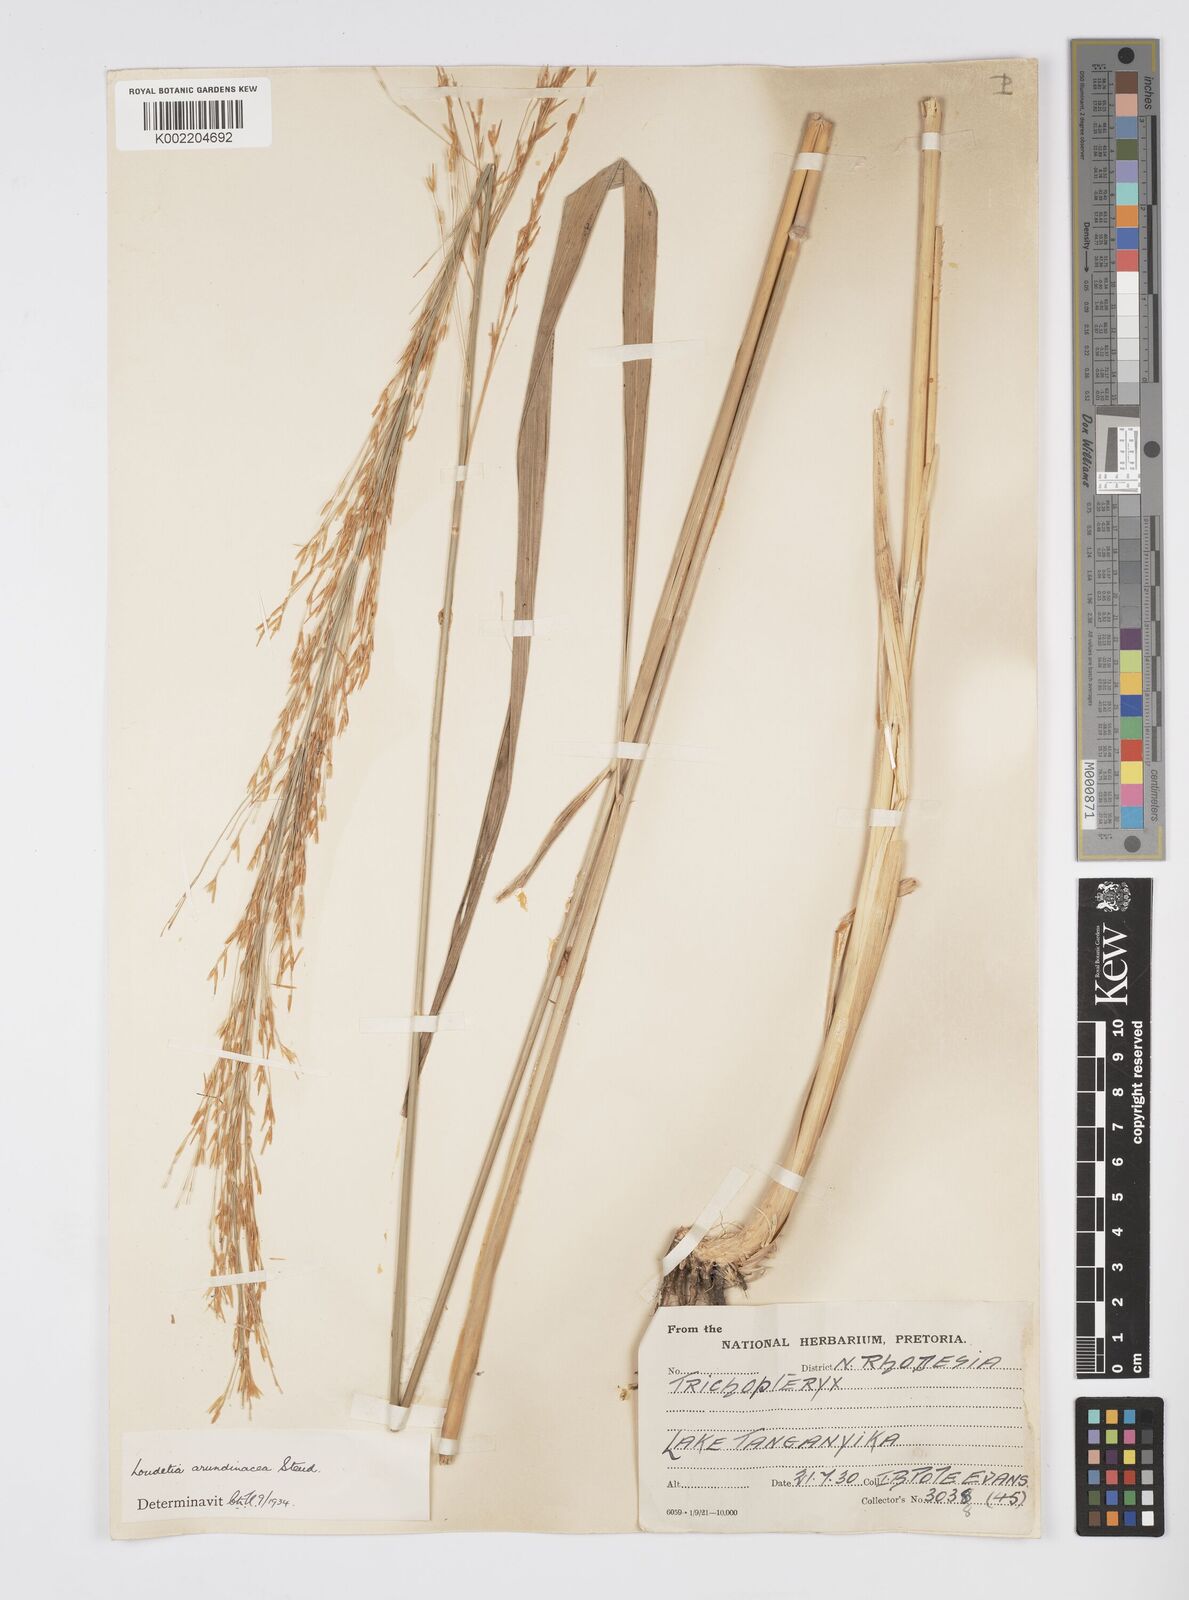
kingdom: Plantae
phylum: Tracheophyta
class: Liliopsida
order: Poales
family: Poaceae
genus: Loudetia
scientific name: Loudetia arundinacea
